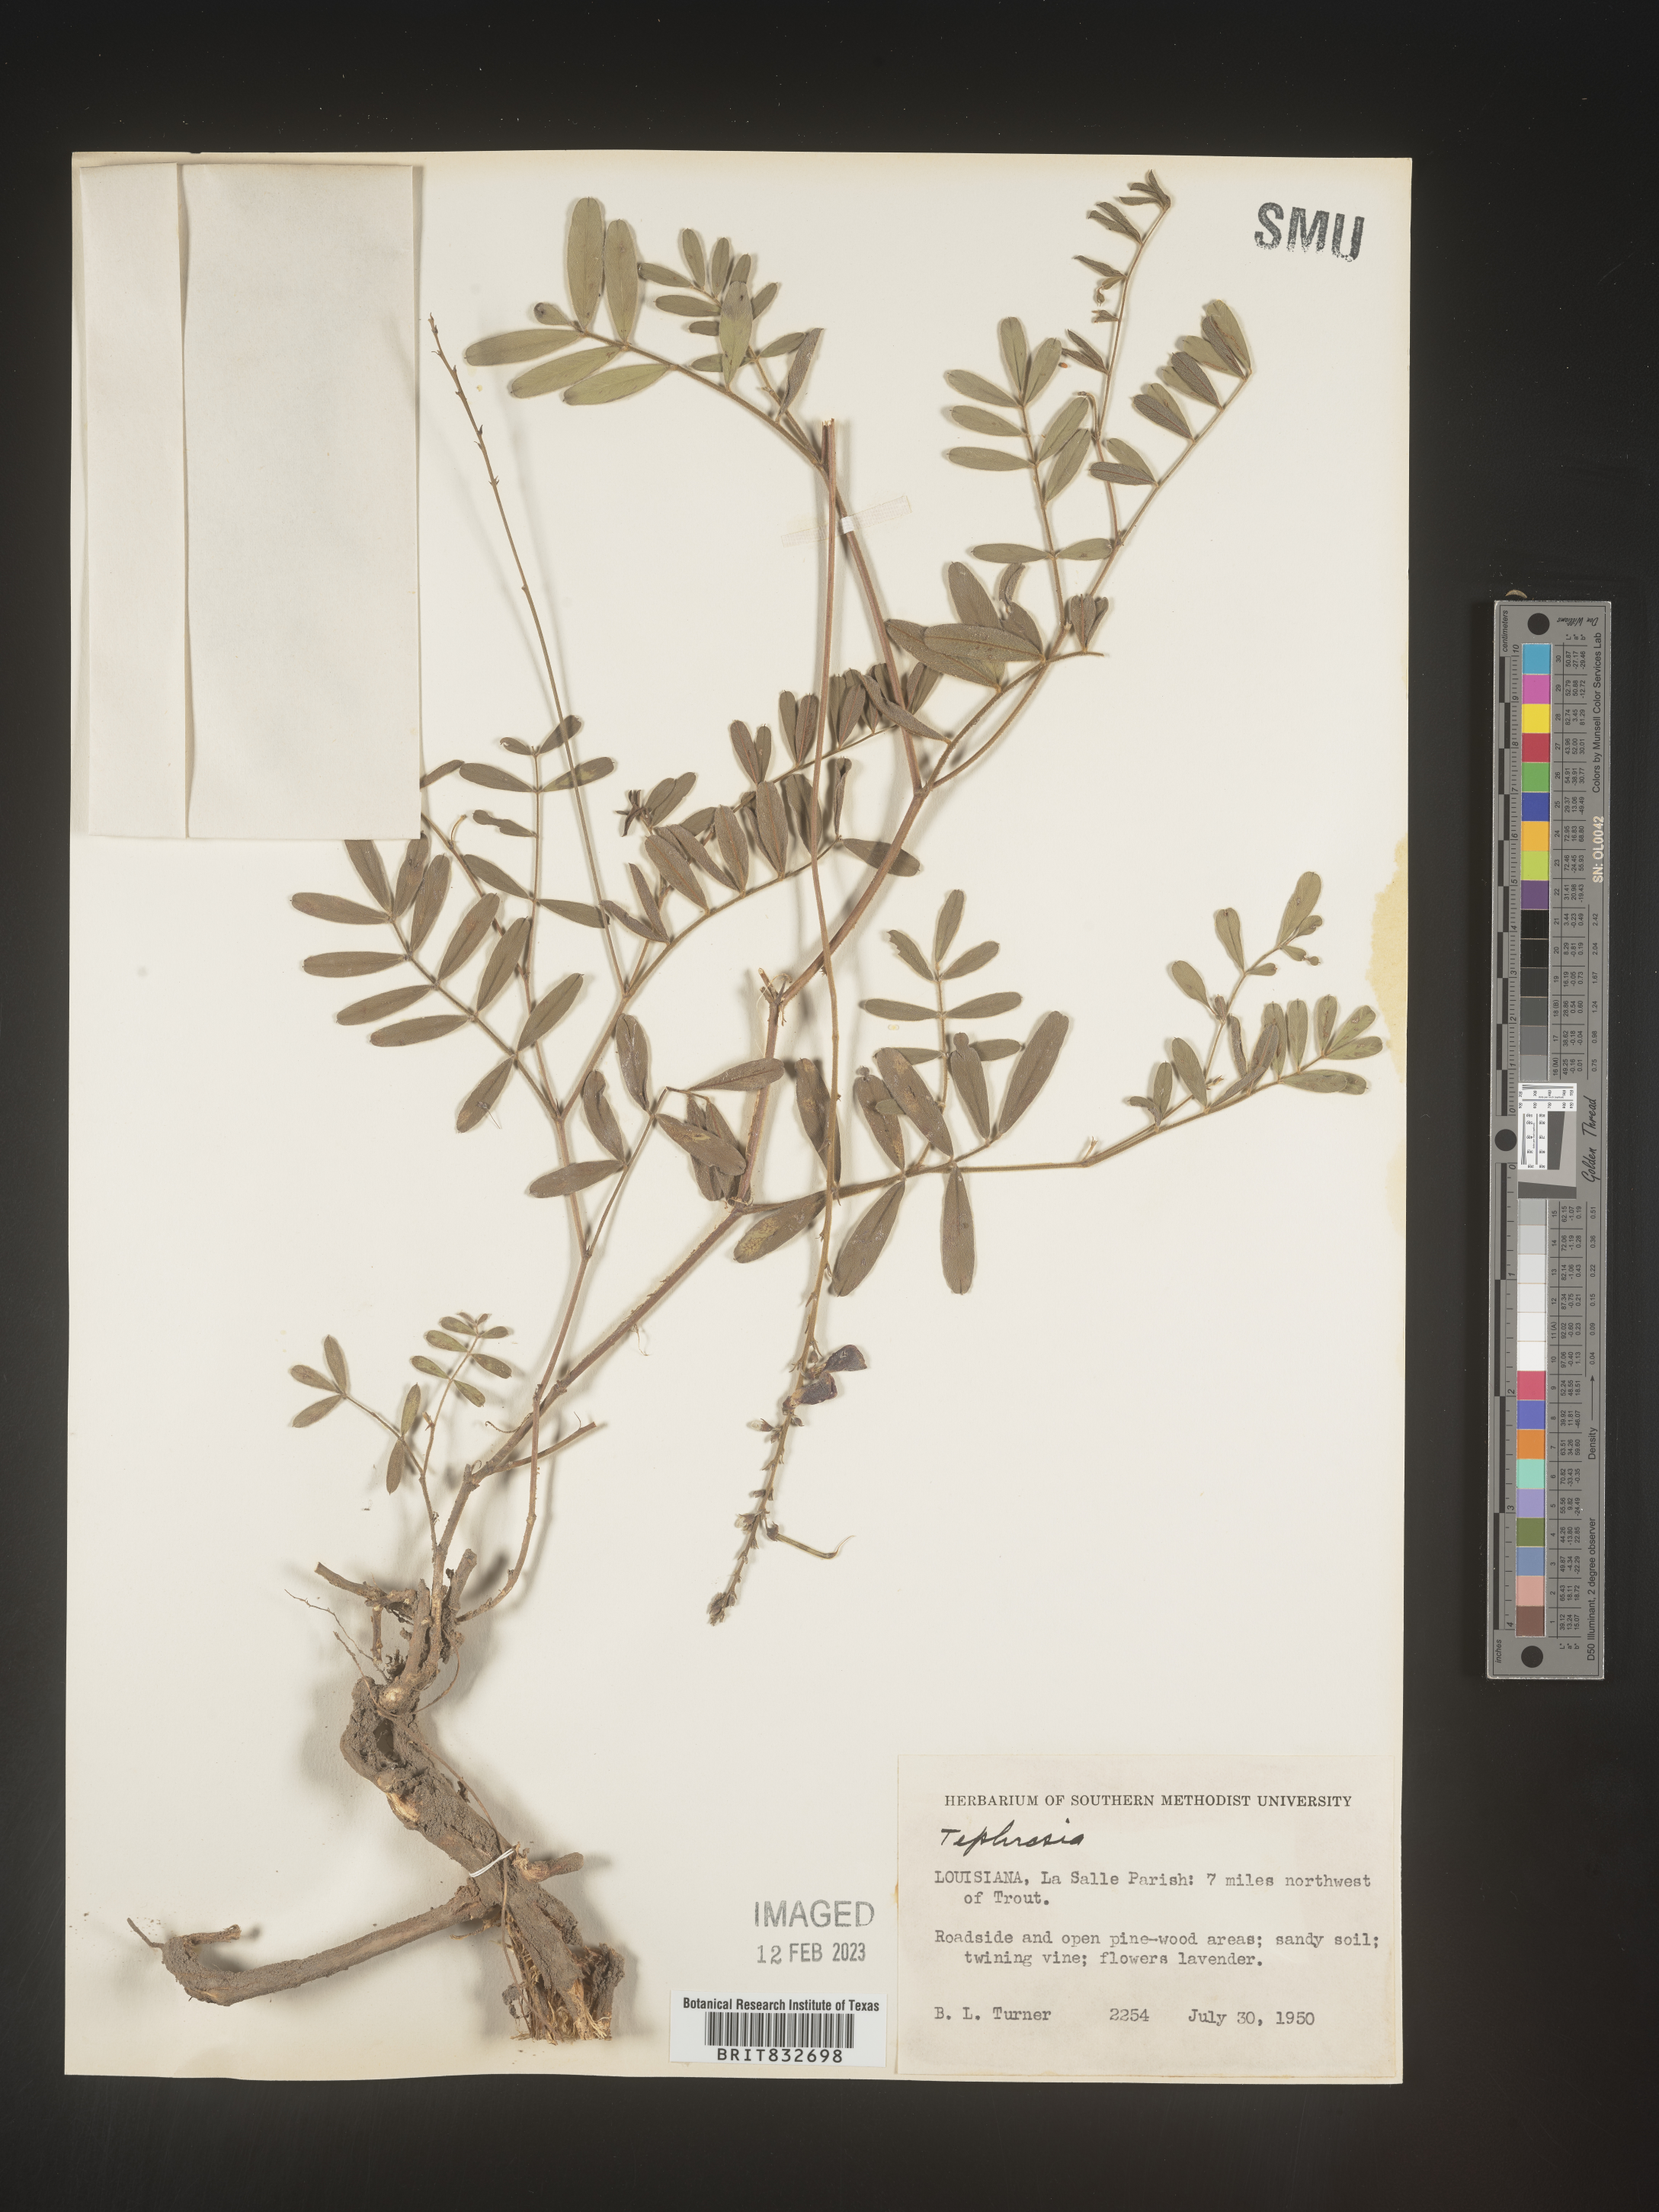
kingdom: Plantae
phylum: Tracheophyta
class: Magnoliopsida
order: Fabales
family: Fabaceae
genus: Tephrosia
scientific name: Tephrosia onobrychoides
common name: Multi-bloom hoary-pea
